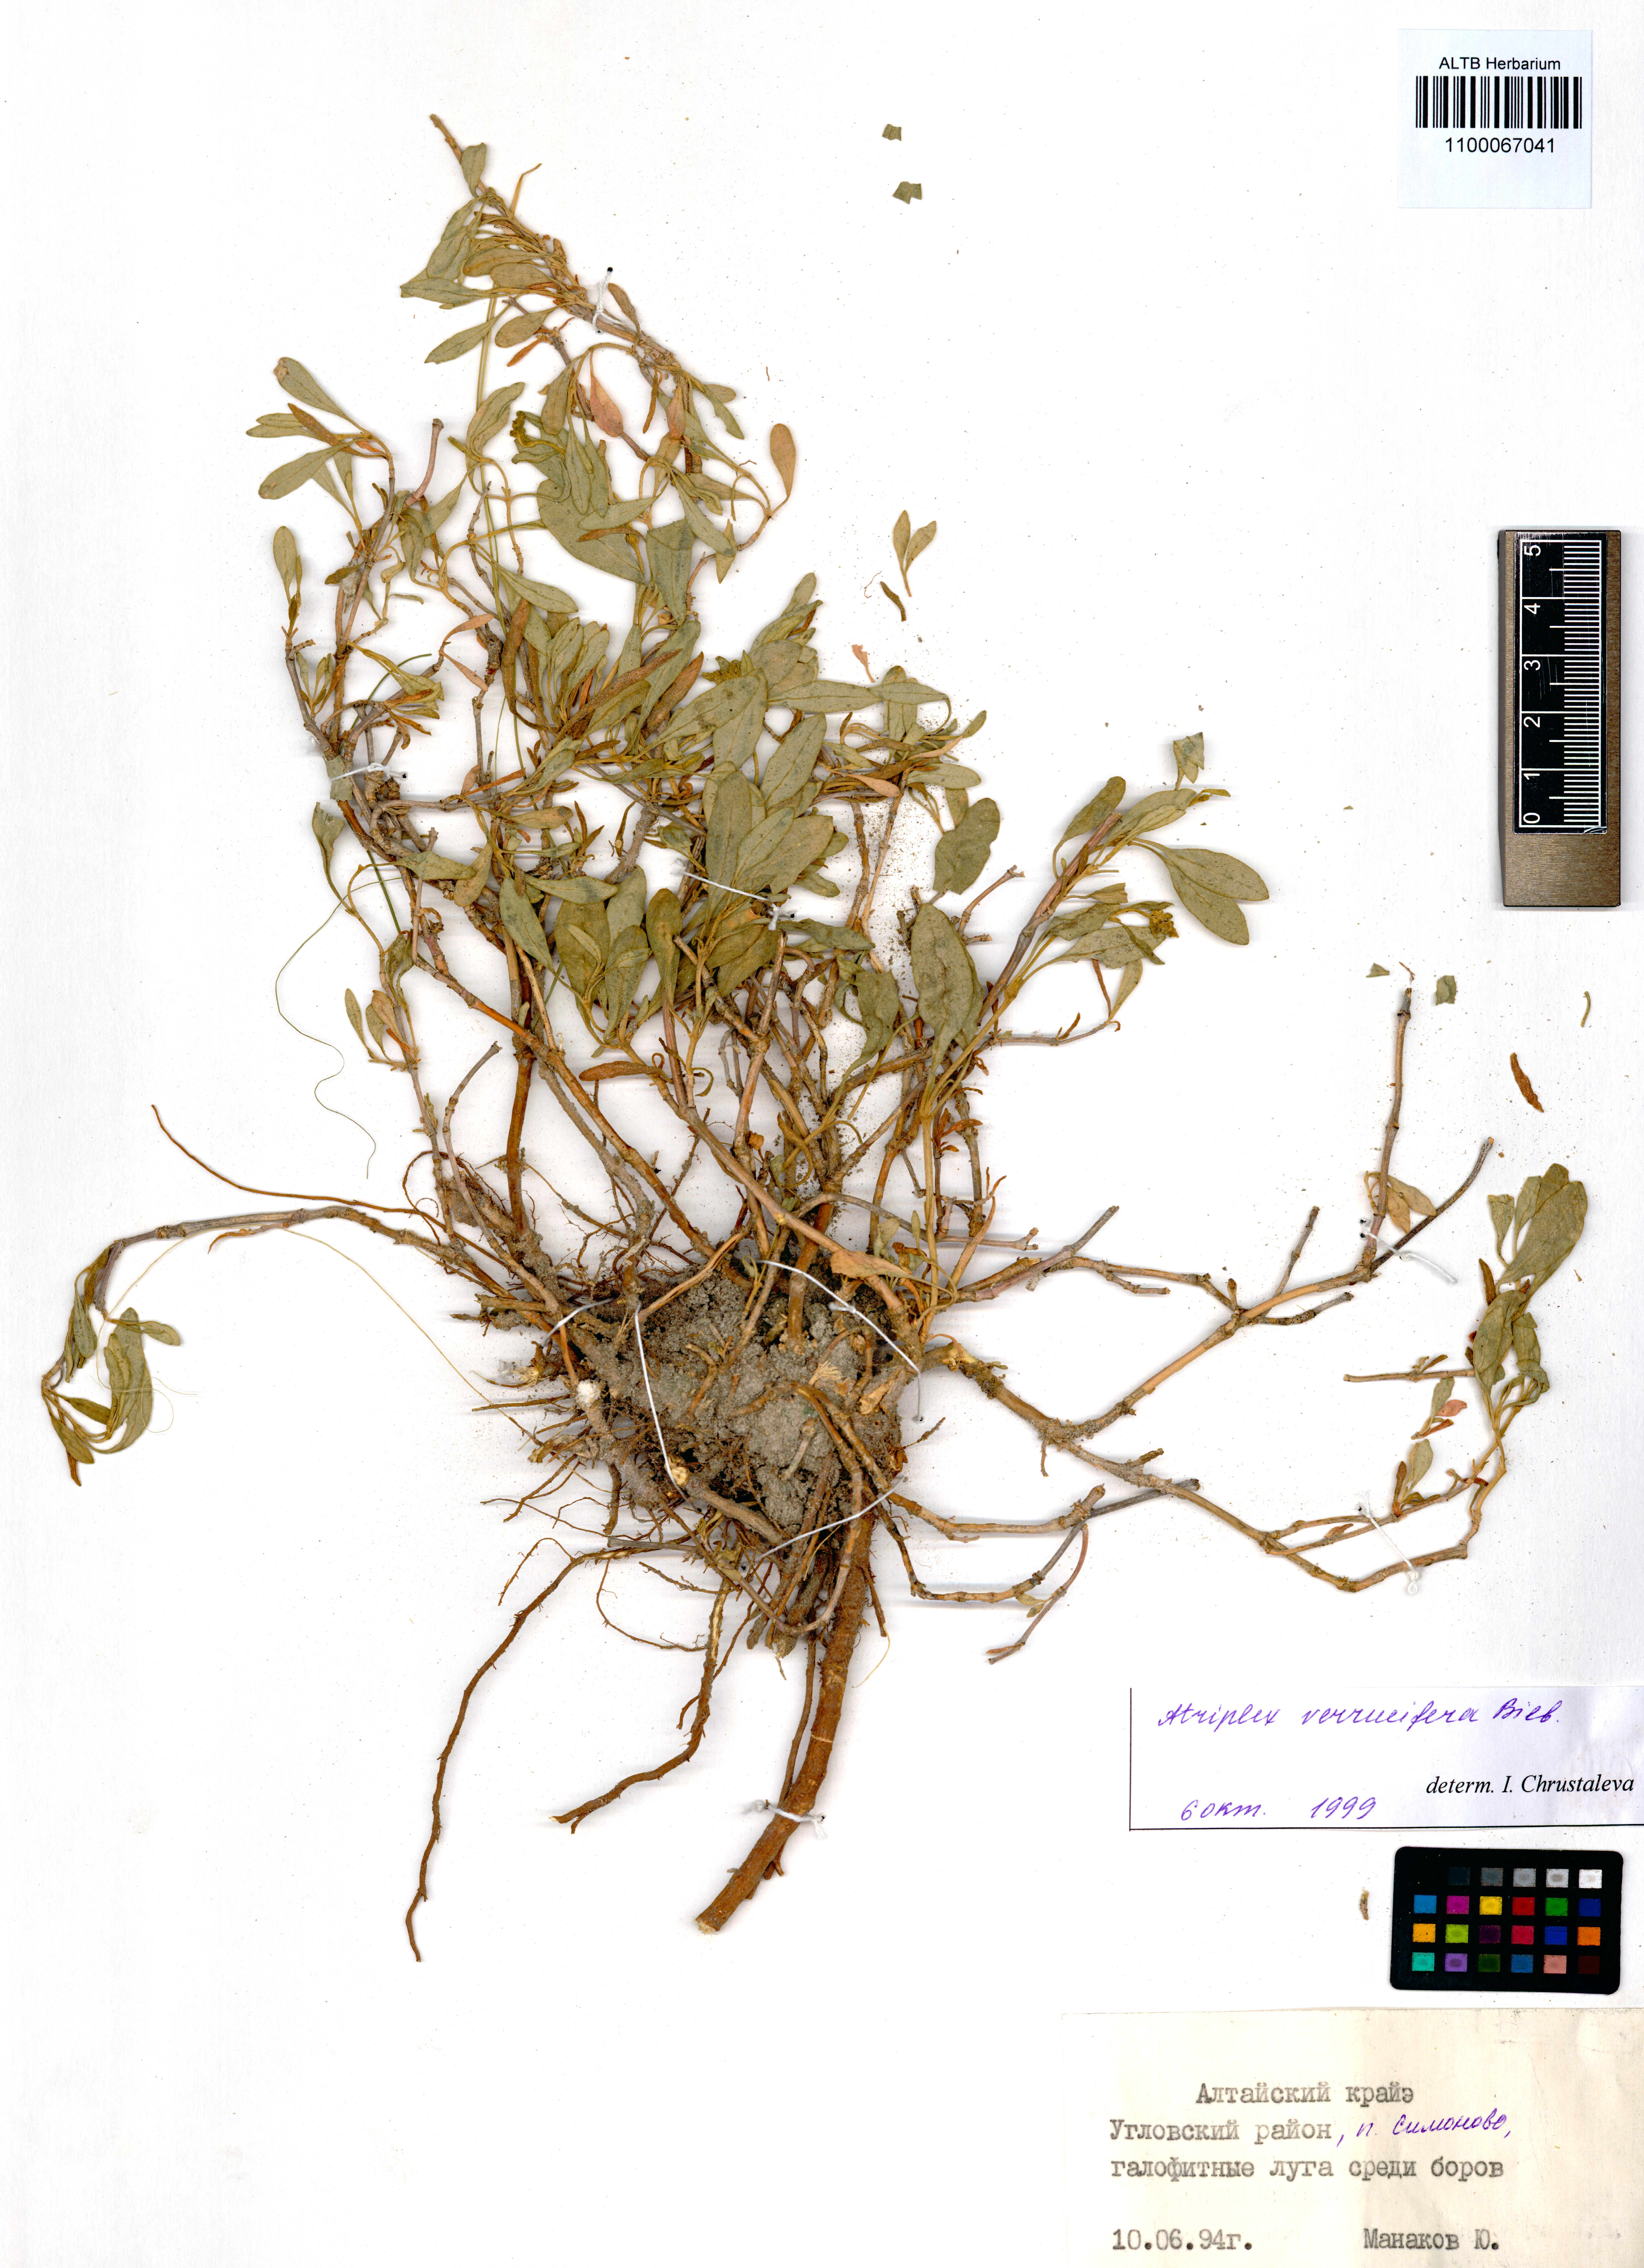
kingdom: Plantae
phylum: Tracheophyta
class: Magnoliopsida
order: Caryophyllales
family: Amaranthaceae
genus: Halimione
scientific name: Halimione verrucifera
